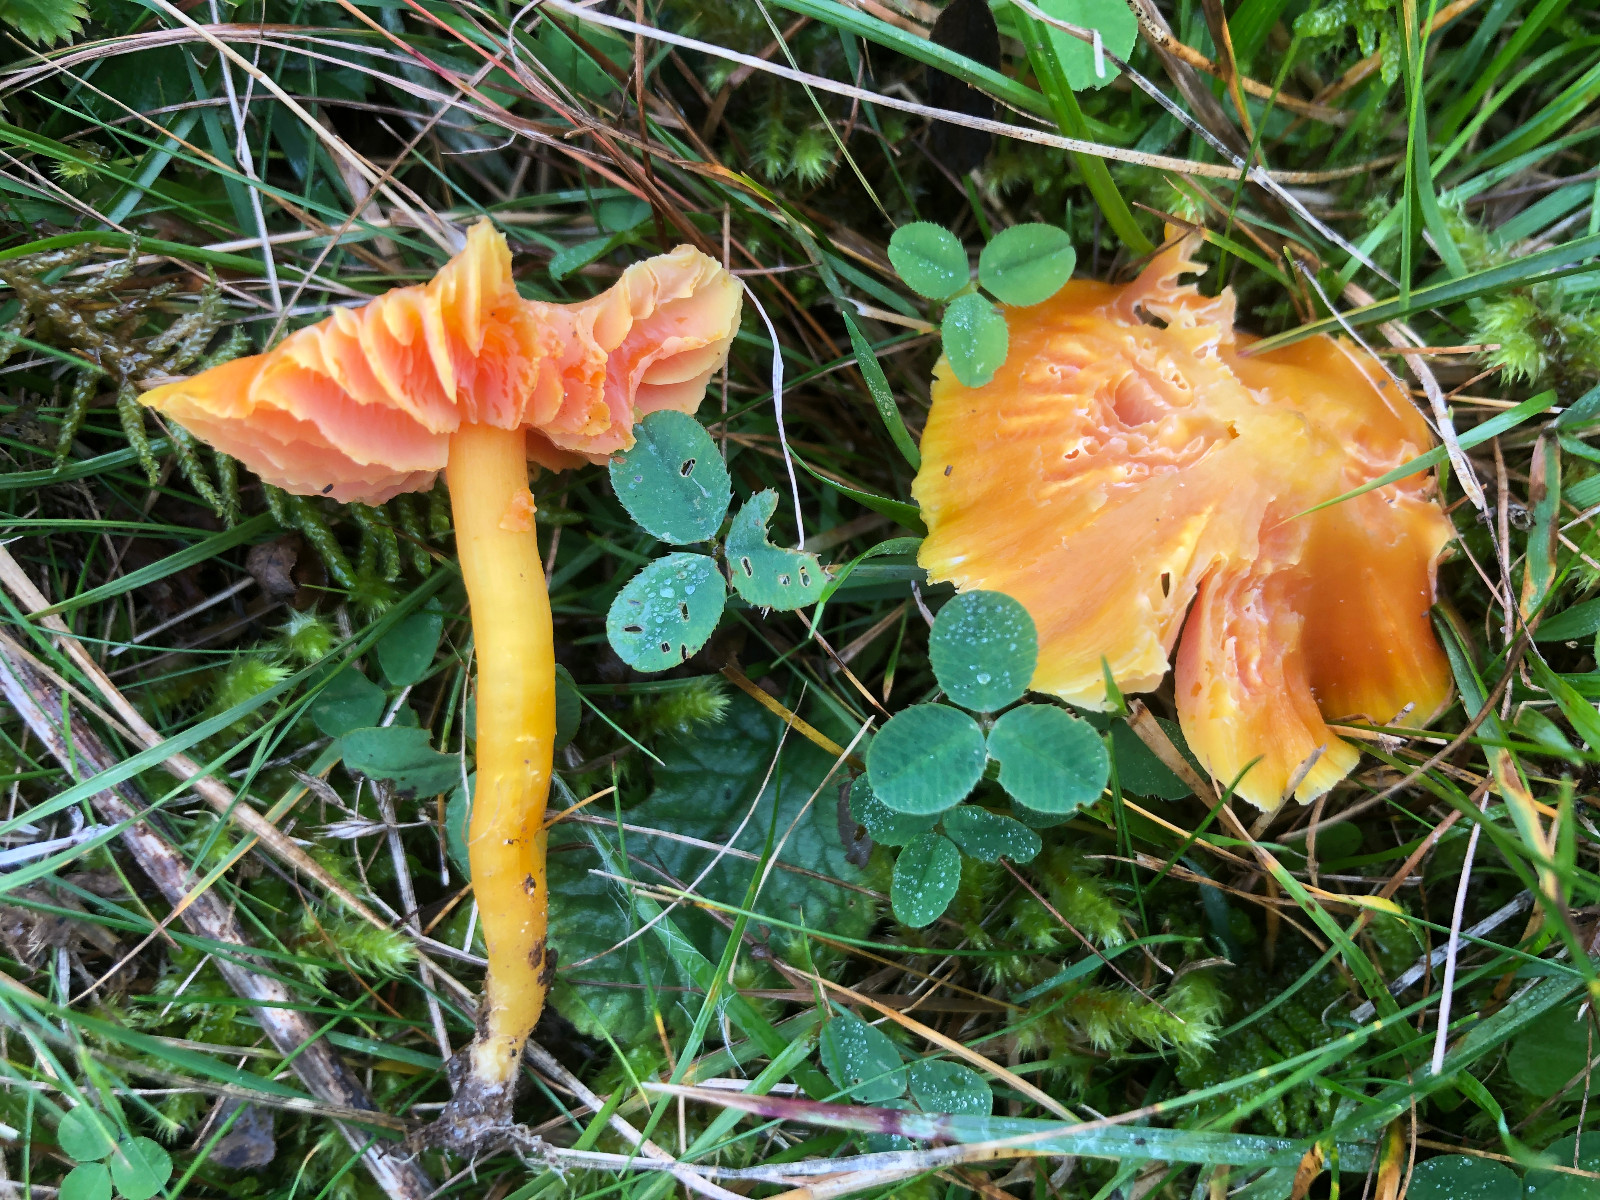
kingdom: Fungi
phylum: Basidiomycota
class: Agaricomycetes
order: Agaricales
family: Hygrophoraceae
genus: Hygrocybe
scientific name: Hygrocybe quieta
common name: tæge-vokshat
